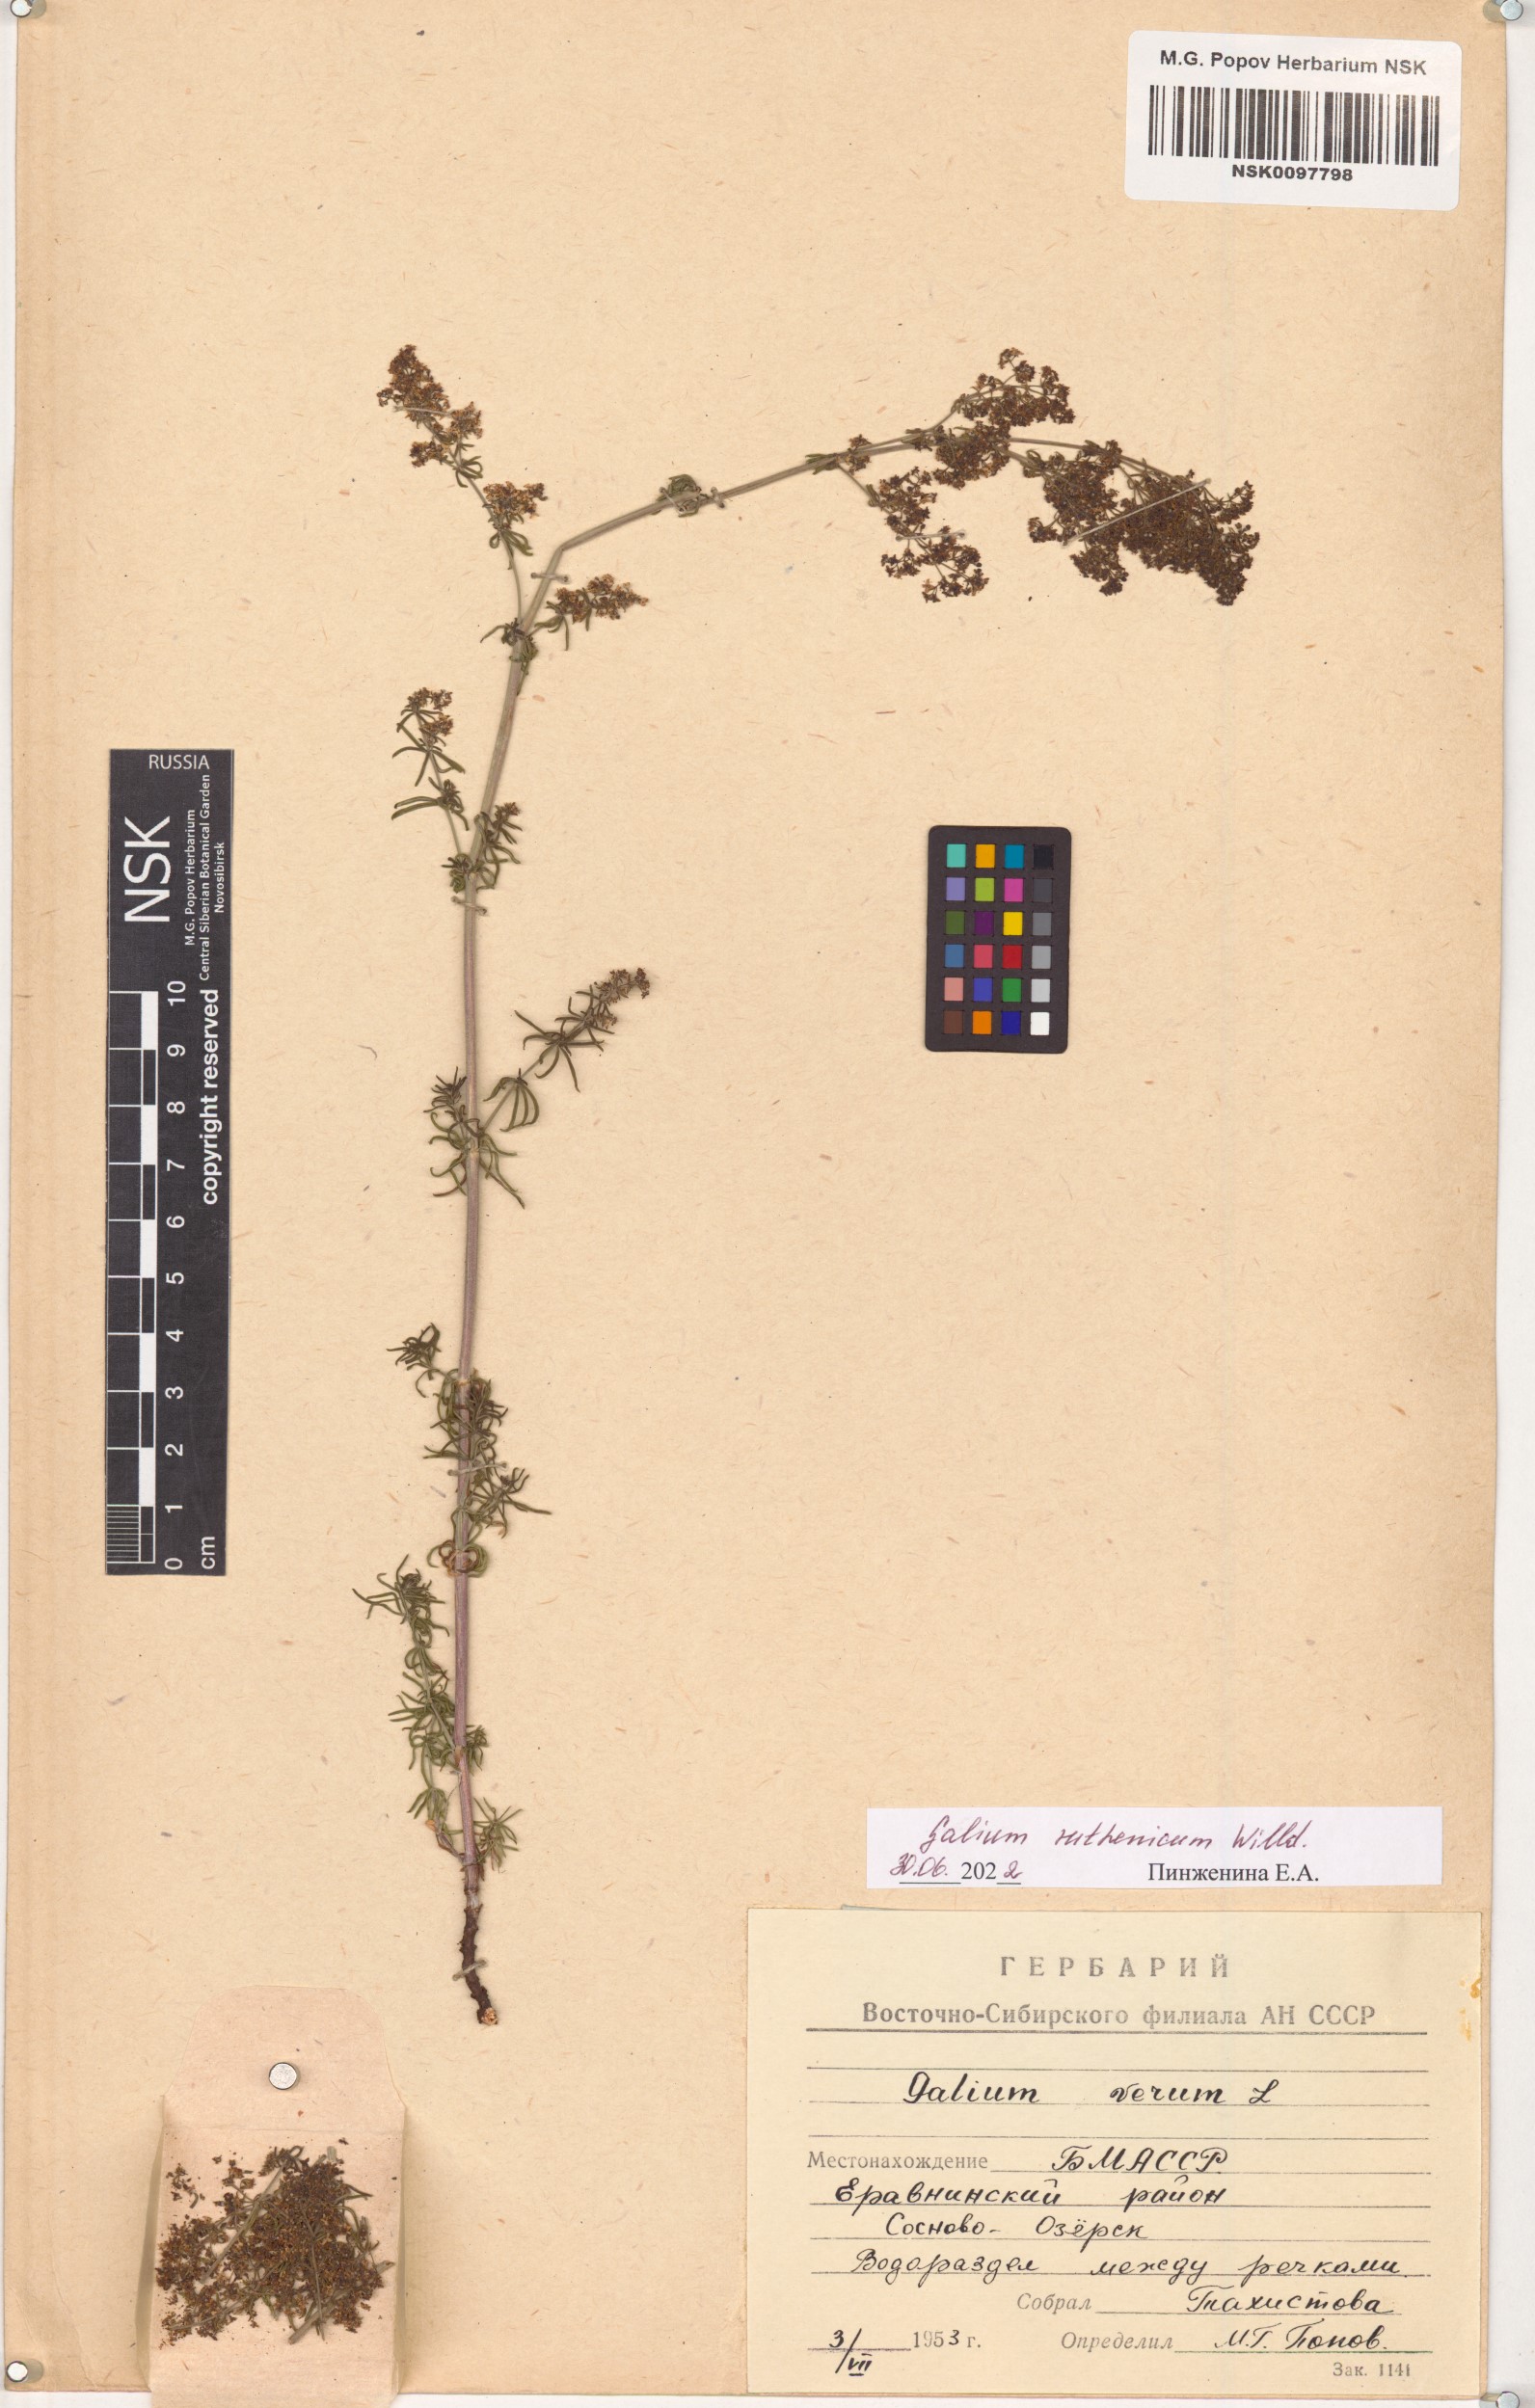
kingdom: Plantae
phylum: Tracheophyta
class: Magnoliopsida
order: Gentianales
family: Rubiaceae
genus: Galium
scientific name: Galium verum
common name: Lady's bedstraw
